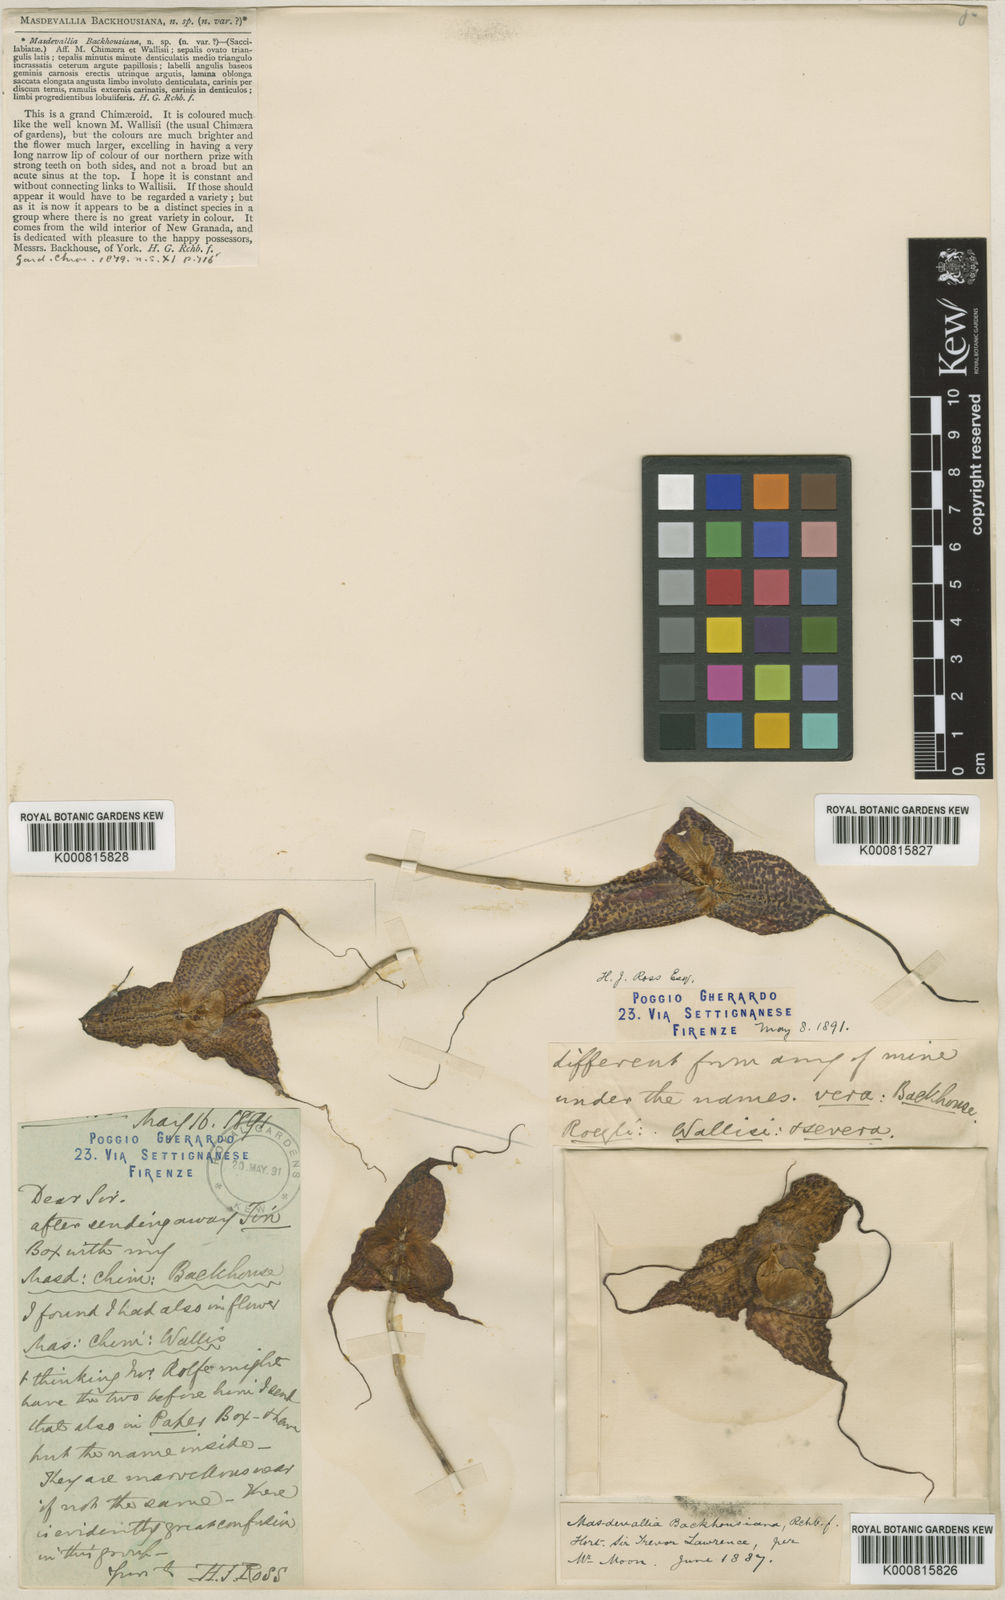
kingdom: Plantae
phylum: Tracheophyta
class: Liliopsida
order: Asparagales
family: Orchidaceae
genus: Dracula
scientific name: Dracula chimaera
